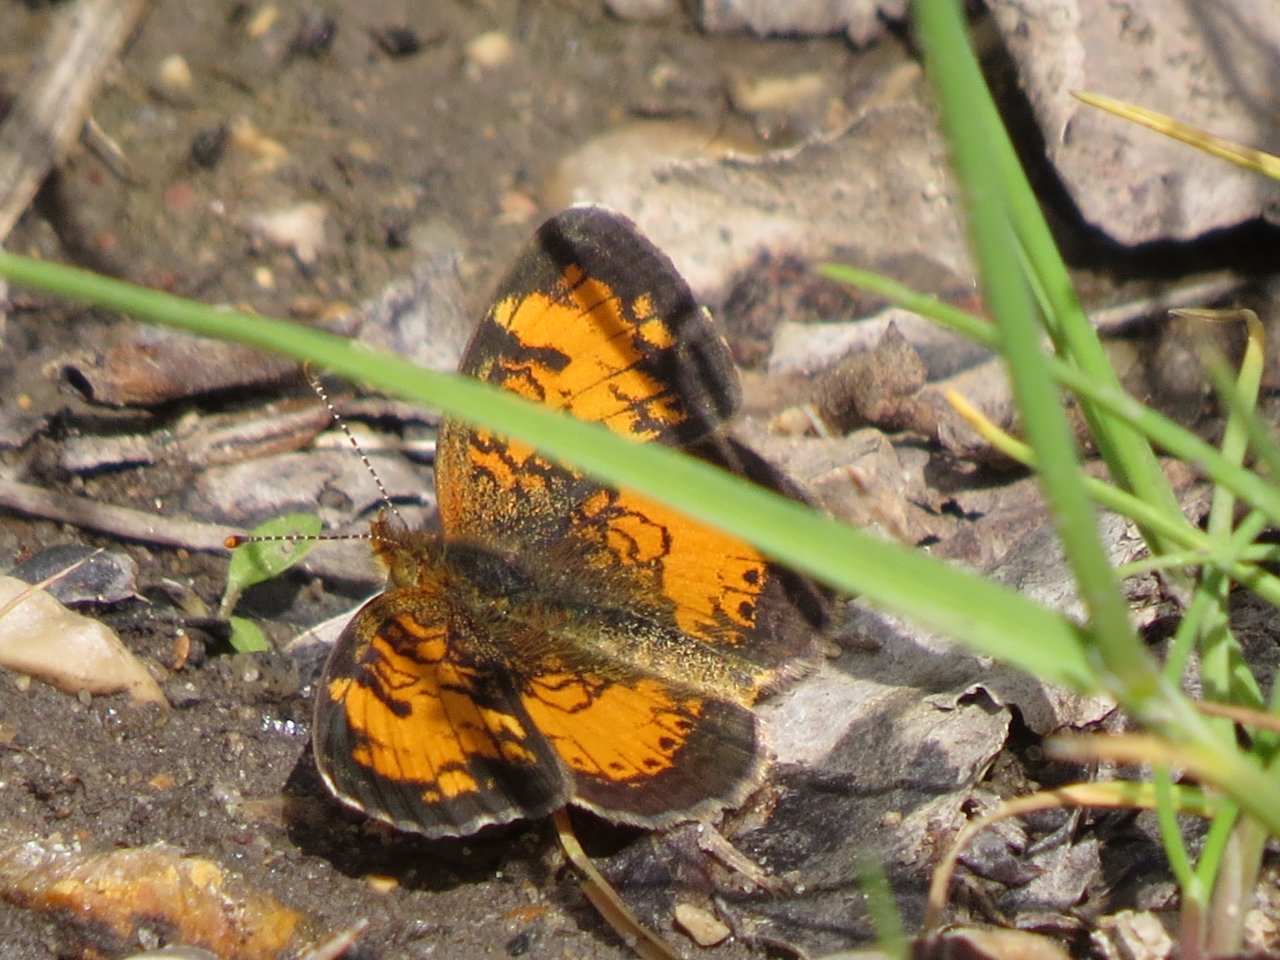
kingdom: Animalia
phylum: Arthropoda
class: Insecta
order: Lepidoptera
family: Nymphalidae
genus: Phyciodes
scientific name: Phyciodes tharos
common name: Northern Crescent
